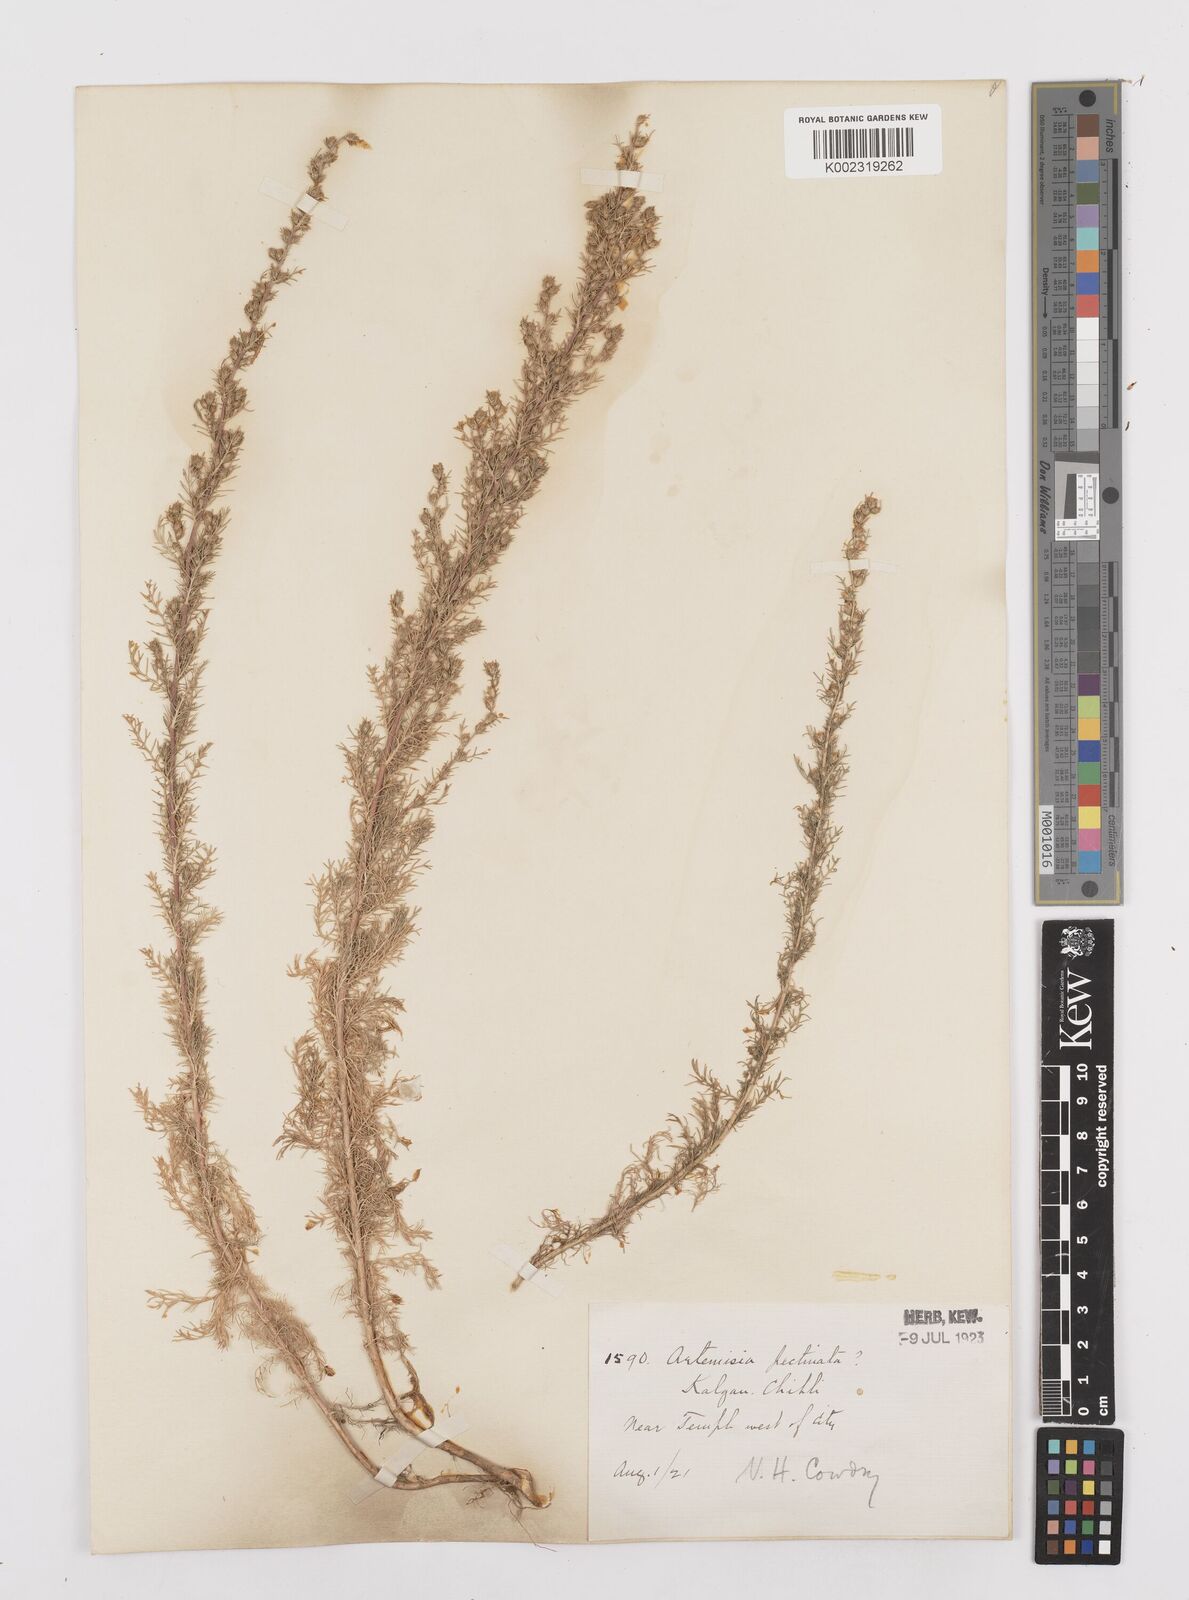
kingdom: Plantae
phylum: Tracheophyta
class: Magnoliopsida
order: Asterales
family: Asteraceae
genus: Neopallasia
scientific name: Neopallasia pectinata
